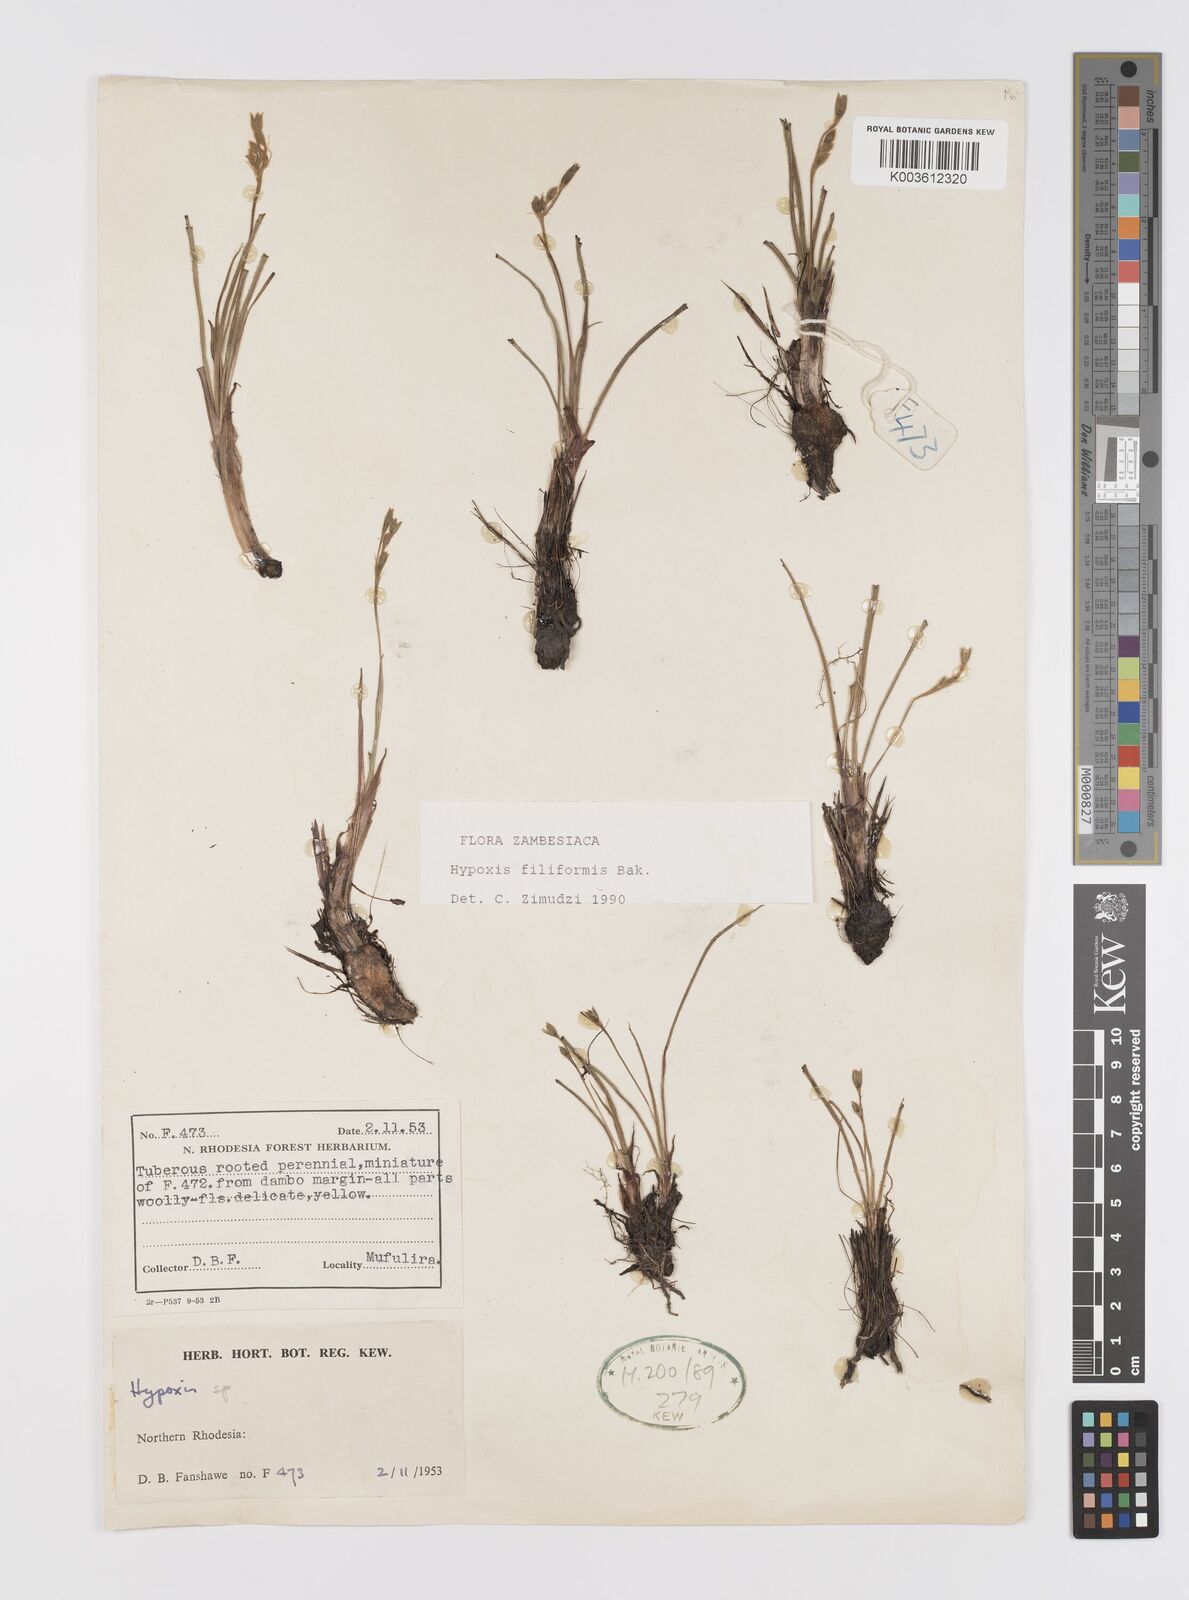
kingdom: Plantae
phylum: Tracheophyta
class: Liliopsida
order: Asparagales
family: Hypoxidaceae
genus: Hypoxis
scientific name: Hypoxis filiformis
